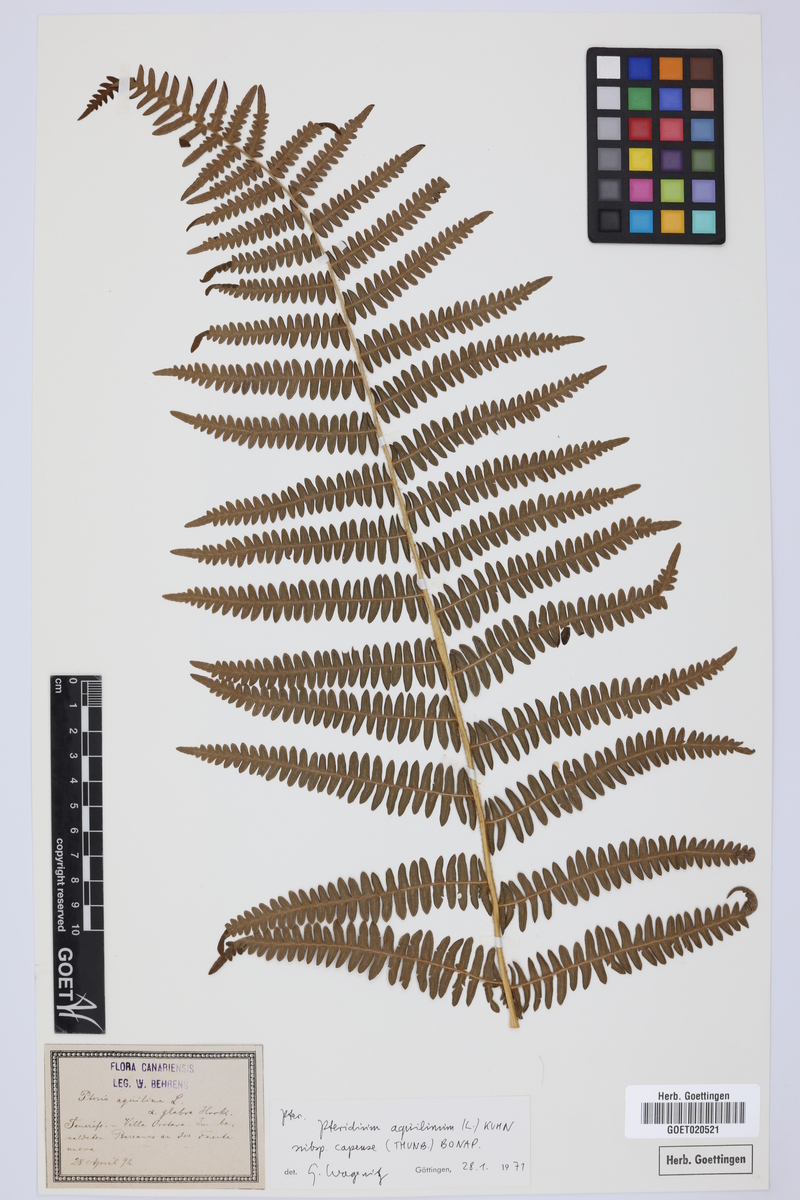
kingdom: Plantae
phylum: Tracheophyta
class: Polypodiopsida
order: Polypodiales
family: Dennstaedtiaceae
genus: Pteridium
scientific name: Pteridium aquilinum
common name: Bracken
